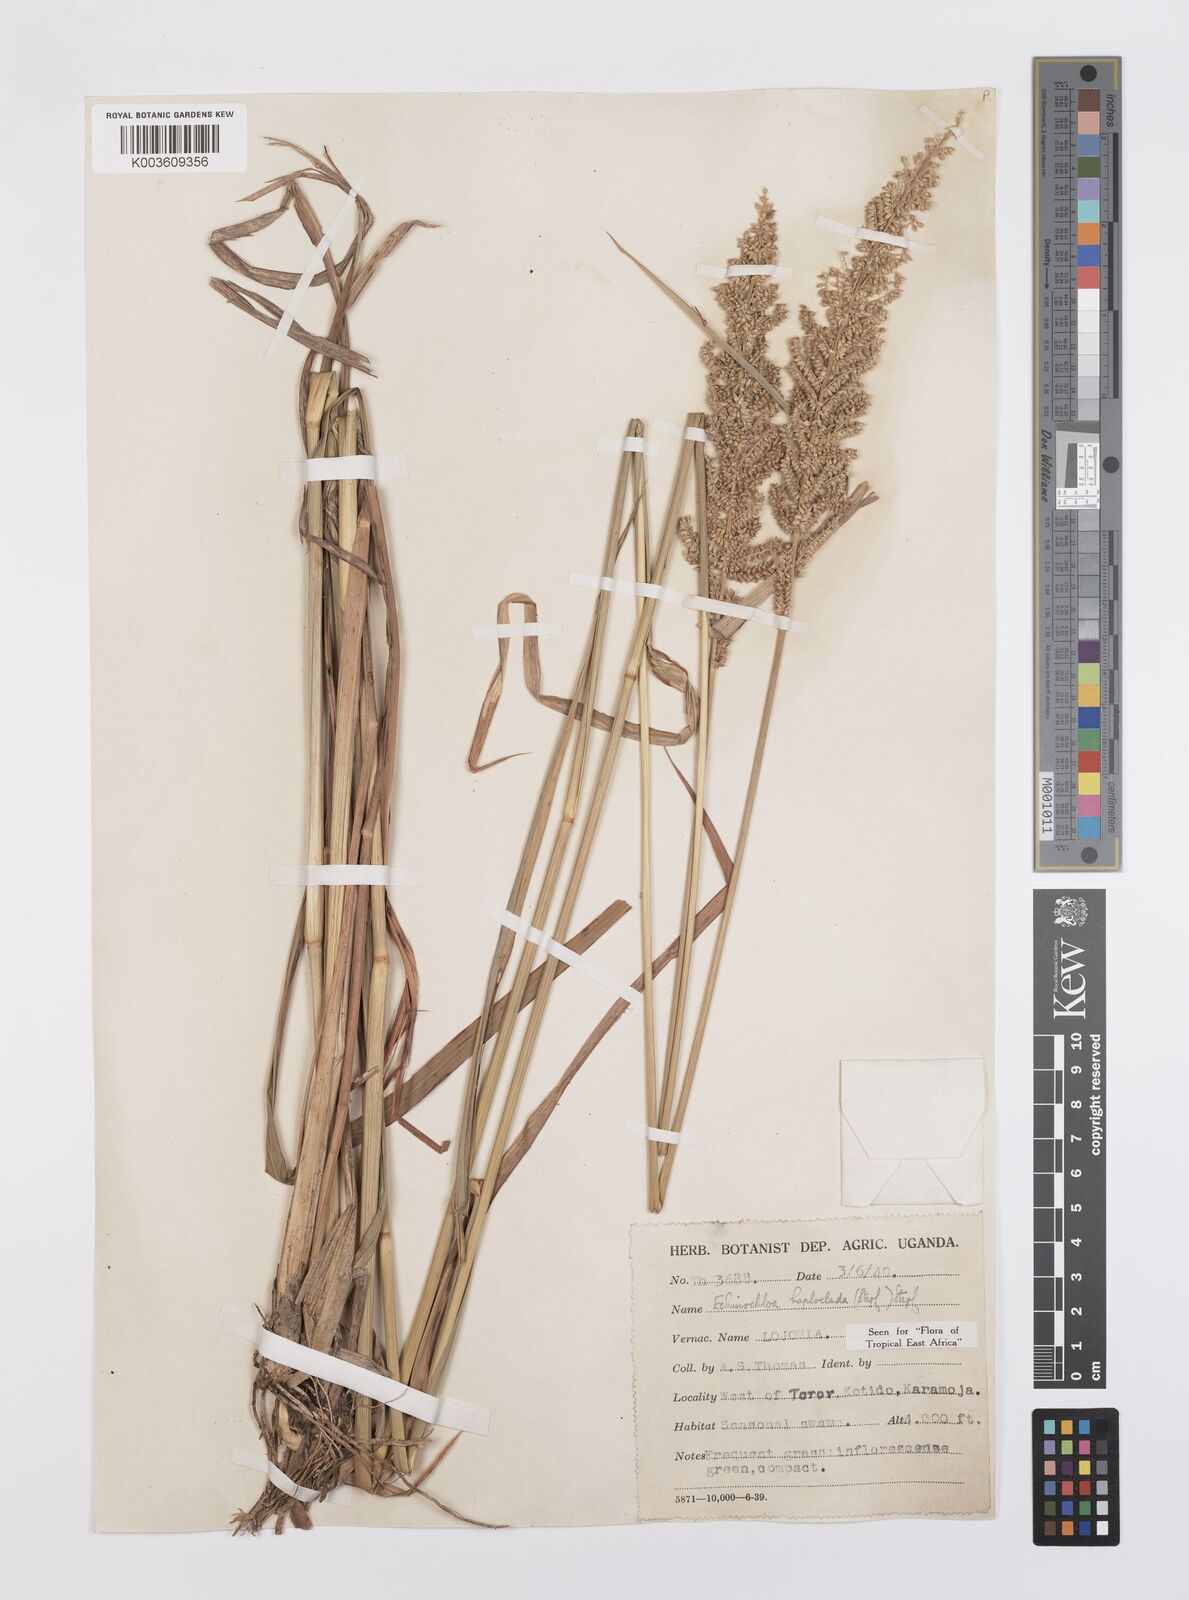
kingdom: Plantae
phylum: Tracheophyta
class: Liliopsida
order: Poales
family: Poaceae
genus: Echinochloa
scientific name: Echinochloa haploclada
